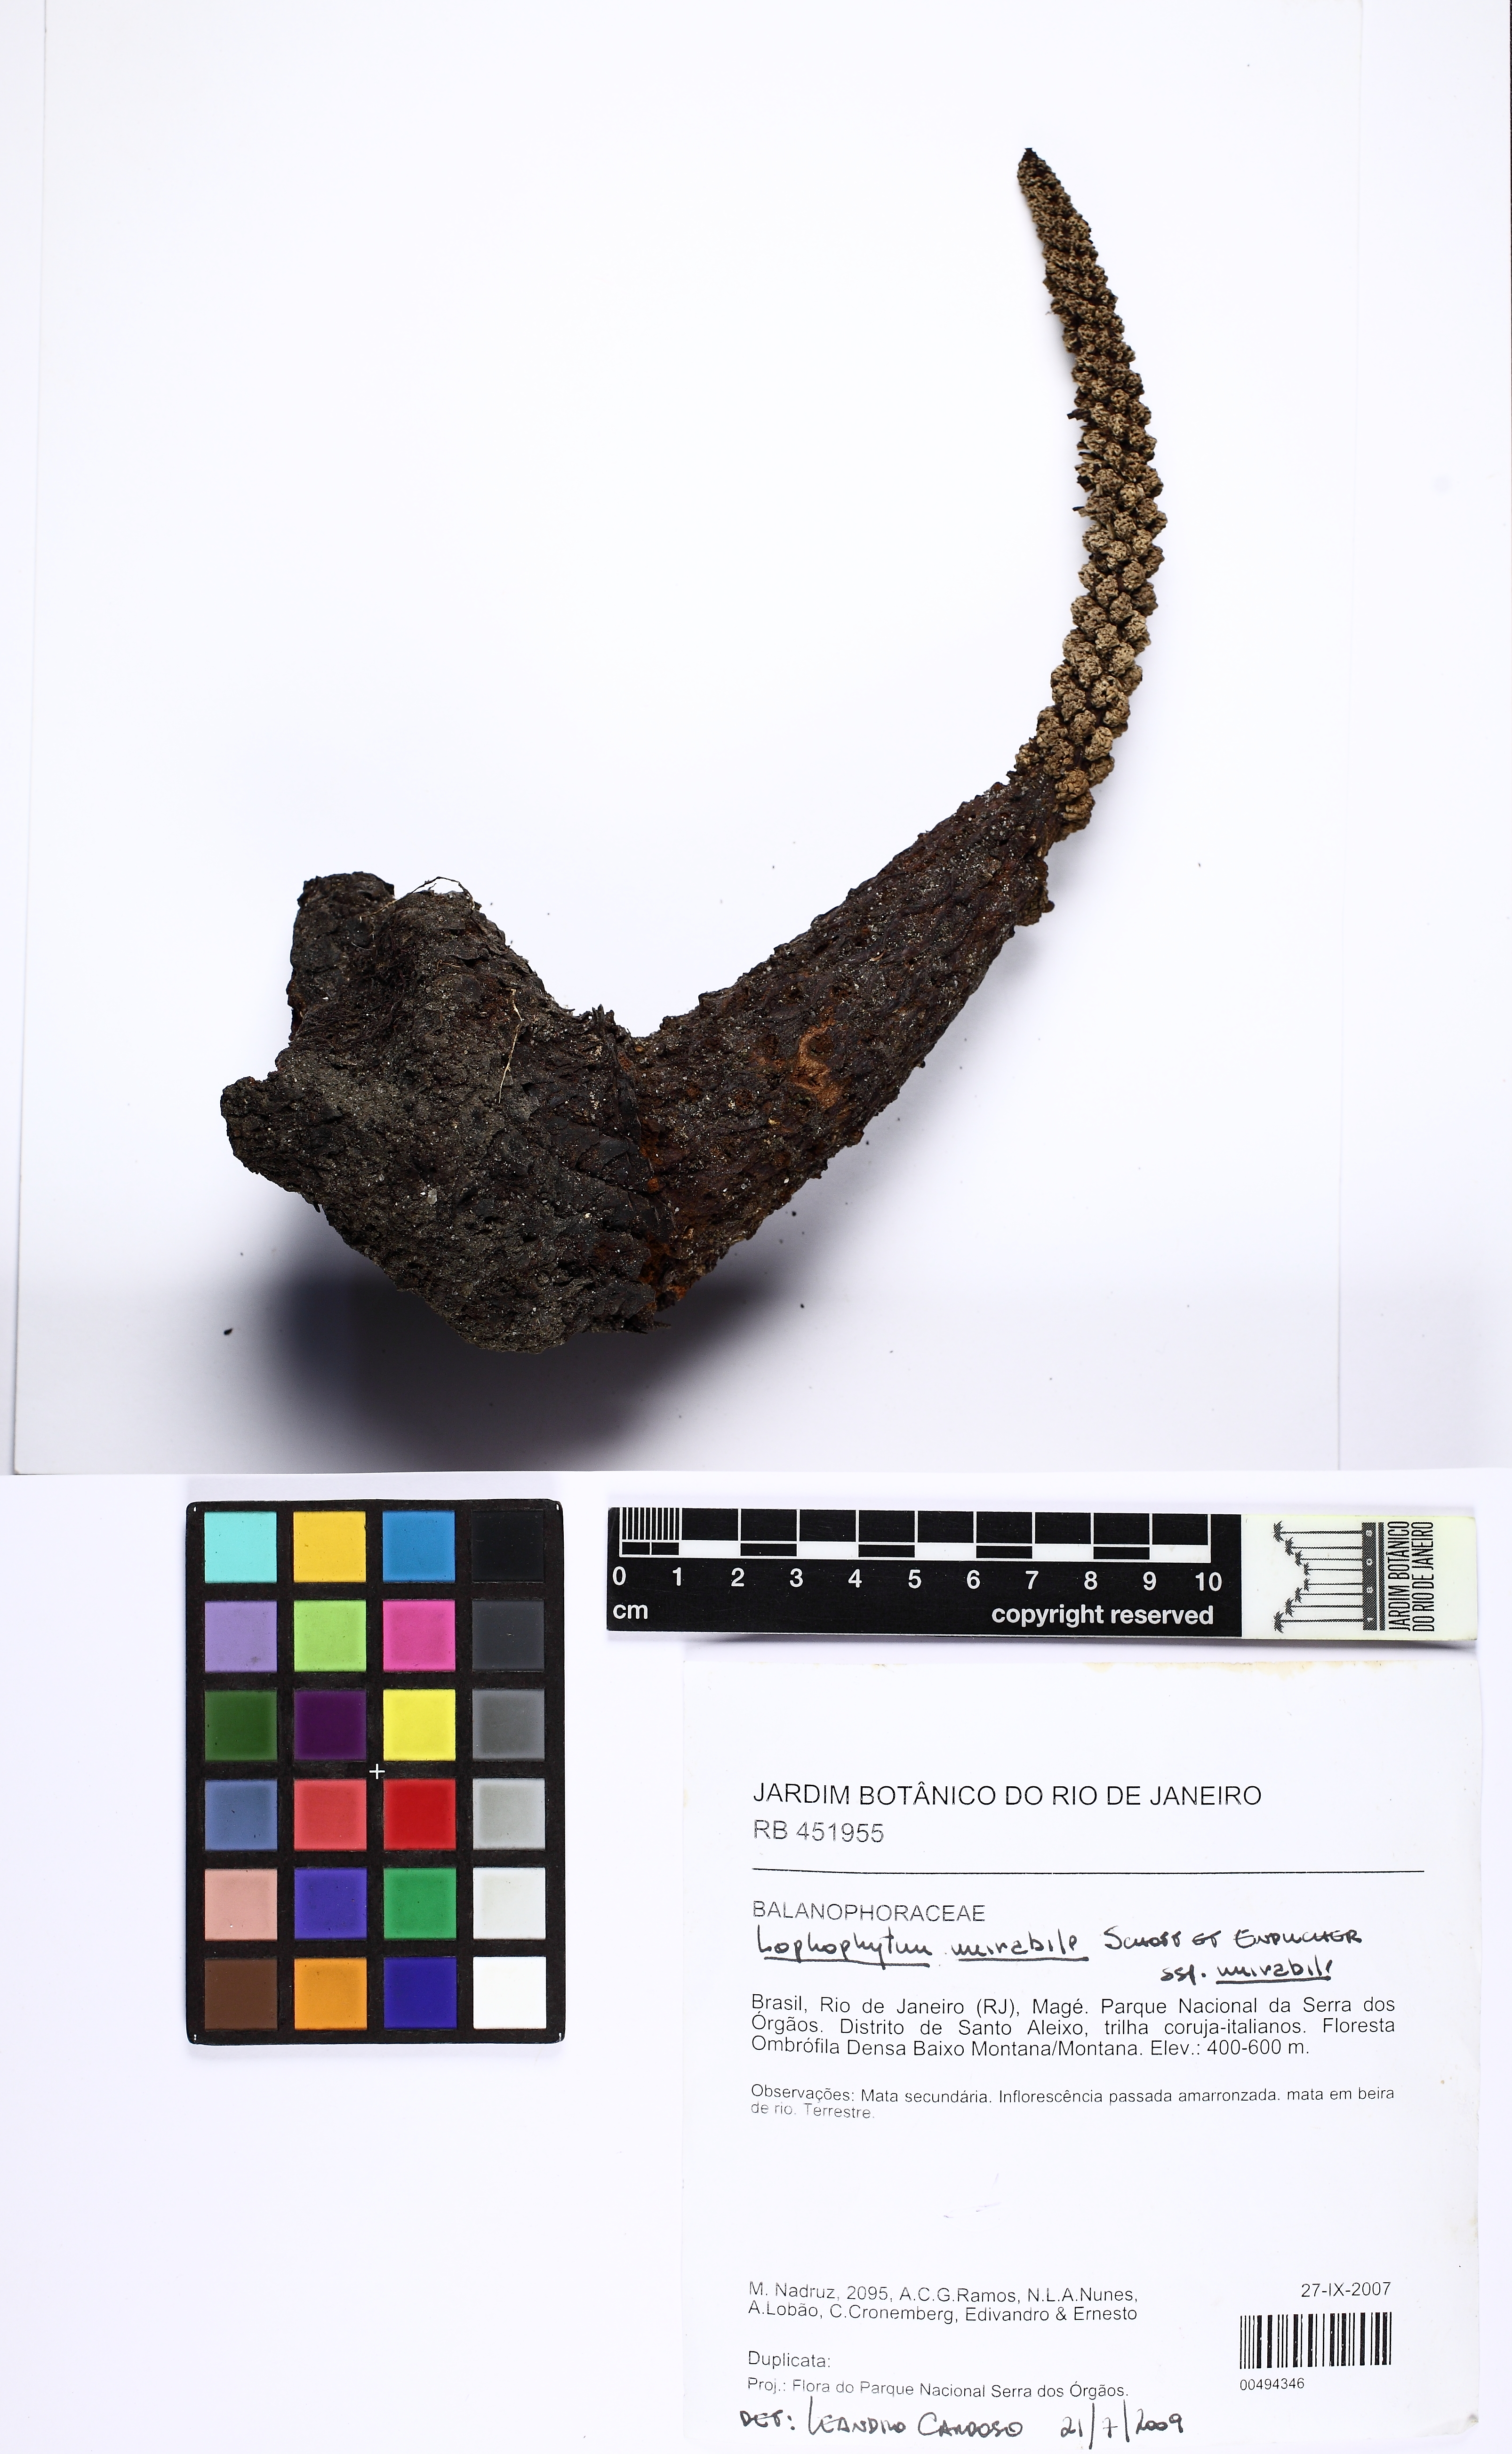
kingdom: Plantae
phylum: Tracheophyta
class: Magnoliopsida
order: Santalales
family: Balanophoraceae
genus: Lophophytum
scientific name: Lophophytum mirabile
